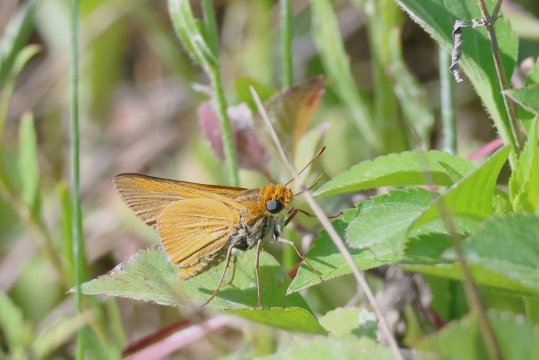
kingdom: Animalia
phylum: Arthropoda
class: Insecta
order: Lepidoptera
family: Hesperiidae
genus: Euphyes
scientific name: Euphyes arpa
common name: Palmetto Skipper
